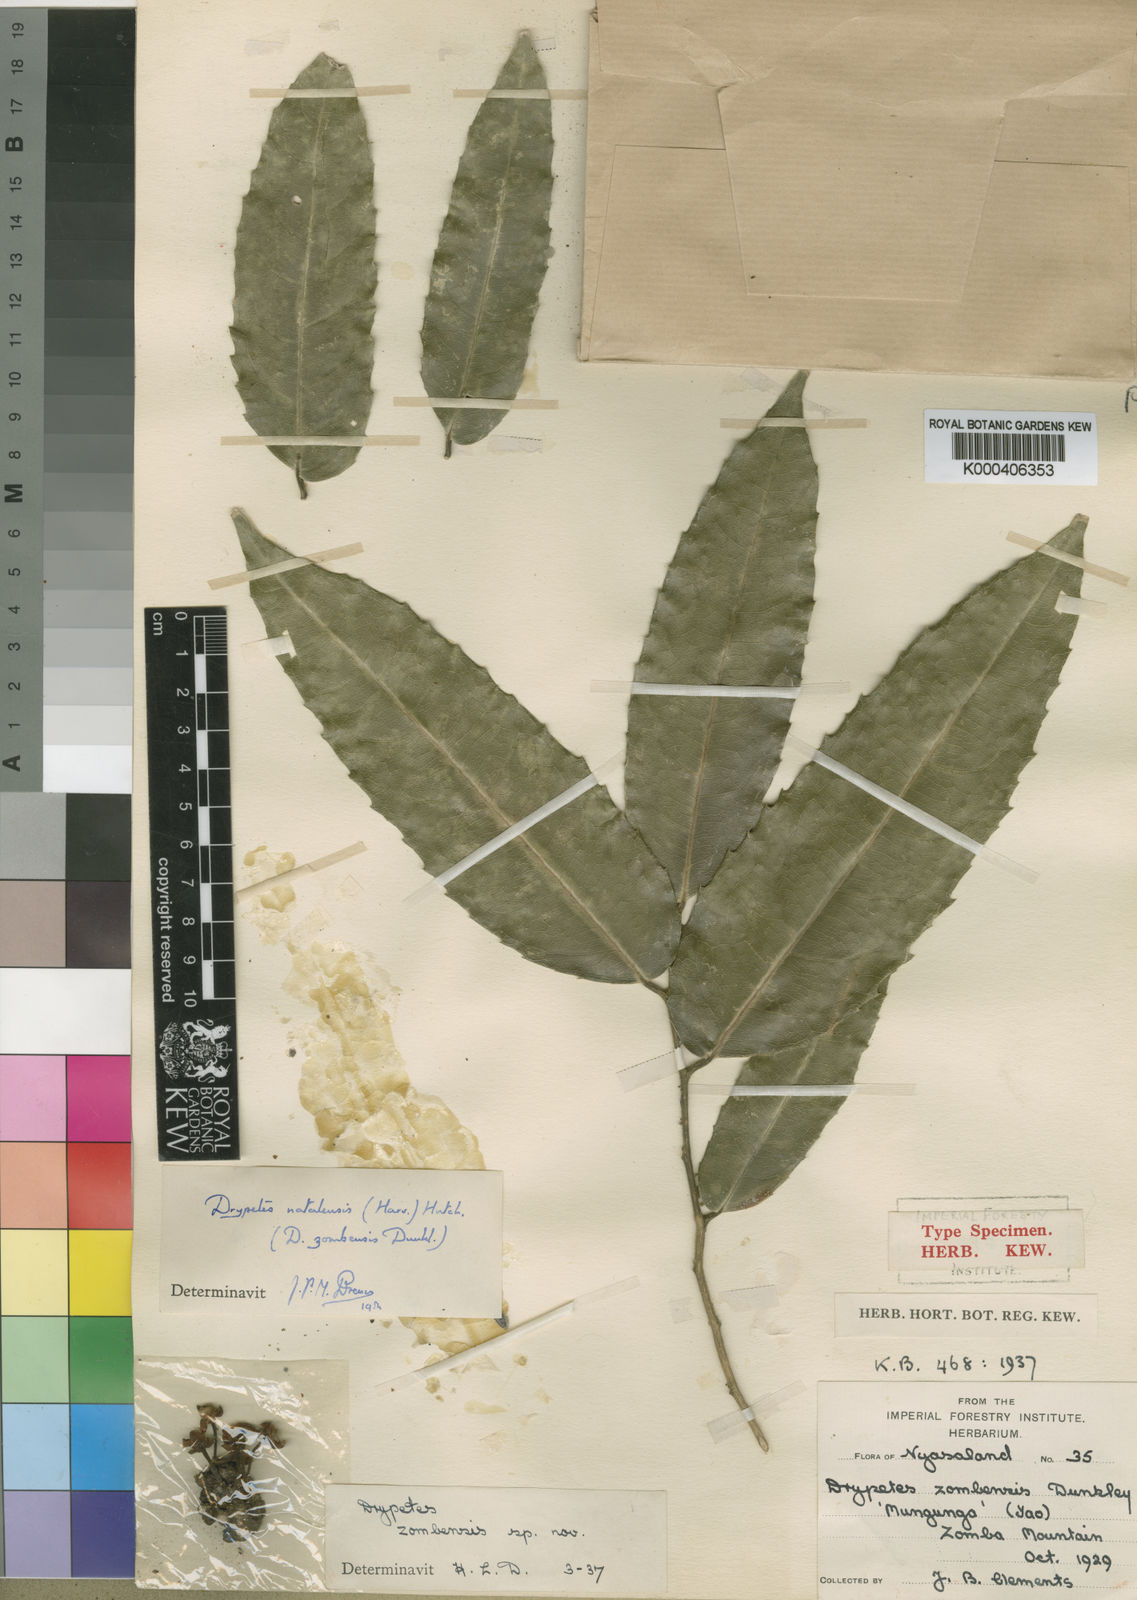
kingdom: Plantae
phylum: Tracheophyta
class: Magnoliopsida
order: Malpighiales
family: Putranjivaceae
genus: Drypetes
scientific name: Drypetes natalensis
